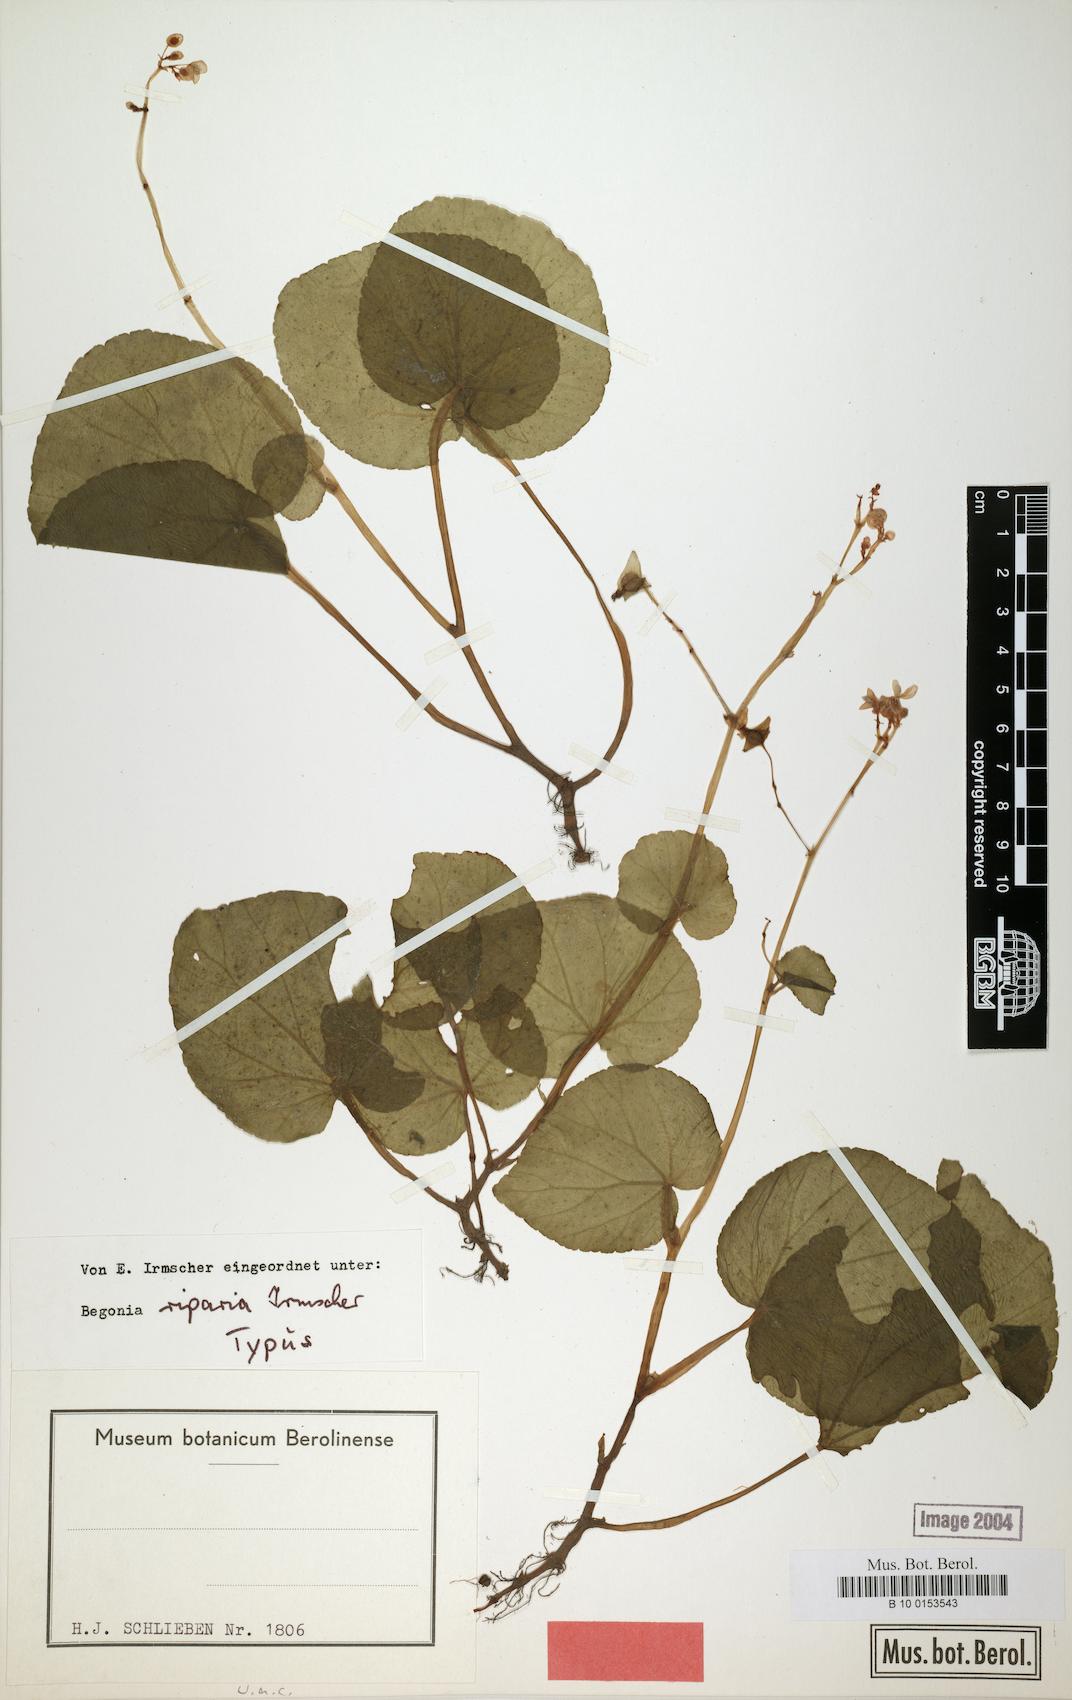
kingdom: Plantae
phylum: Tracheophyta
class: Magnoliopsida
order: Cucurbitales
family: Begoniaceae
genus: Begonia
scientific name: Begonia riparia
